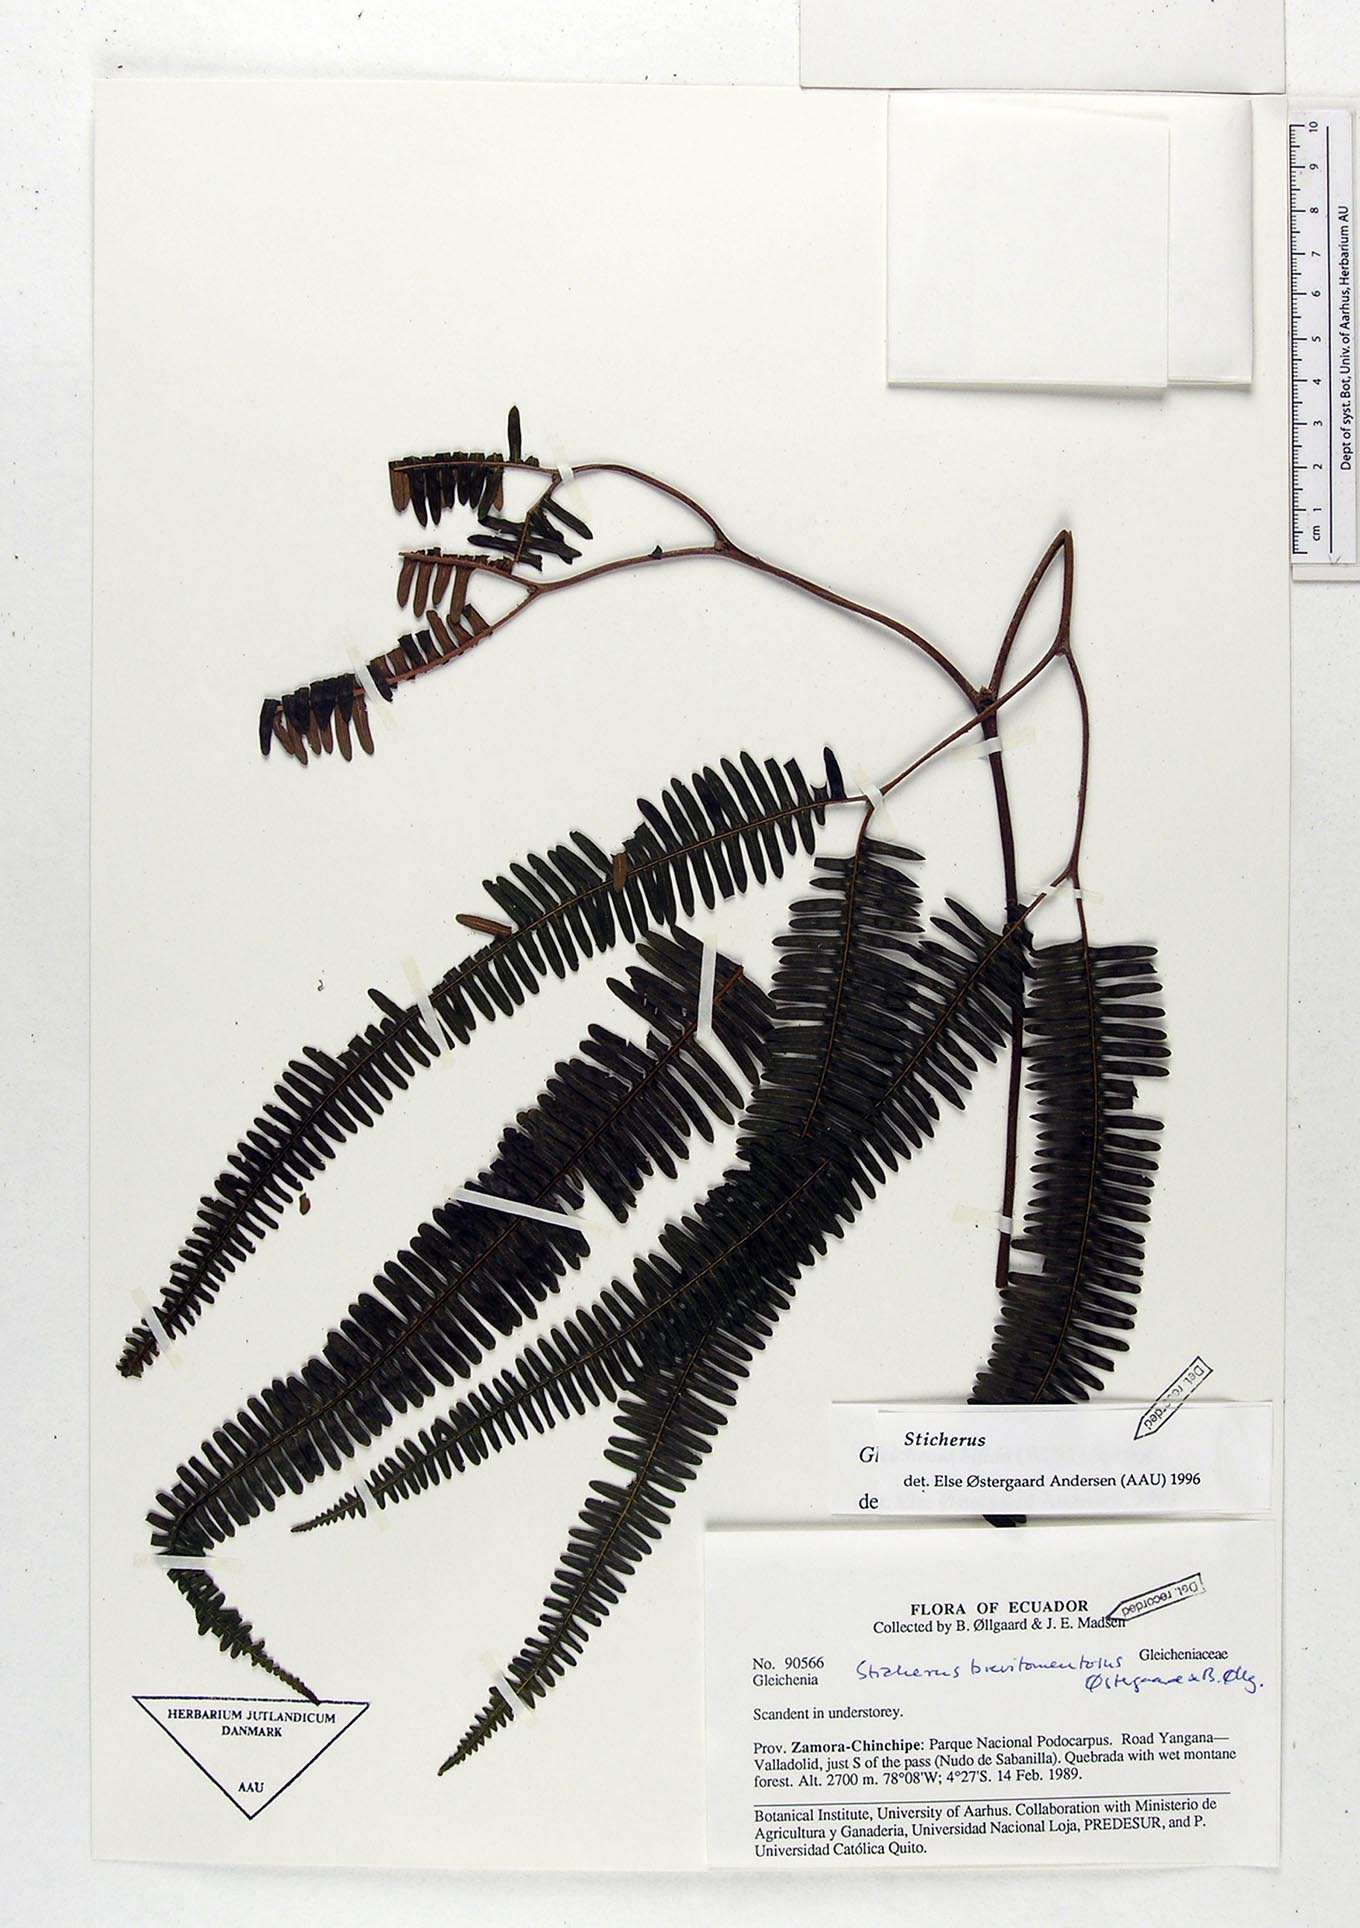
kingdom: Plantae
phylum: Tracheophyta
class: Polypodiopsida
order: Gleicheniales
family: Gleicheniaceae
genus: Sticherus
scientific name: Sticherus brevitomentosus
